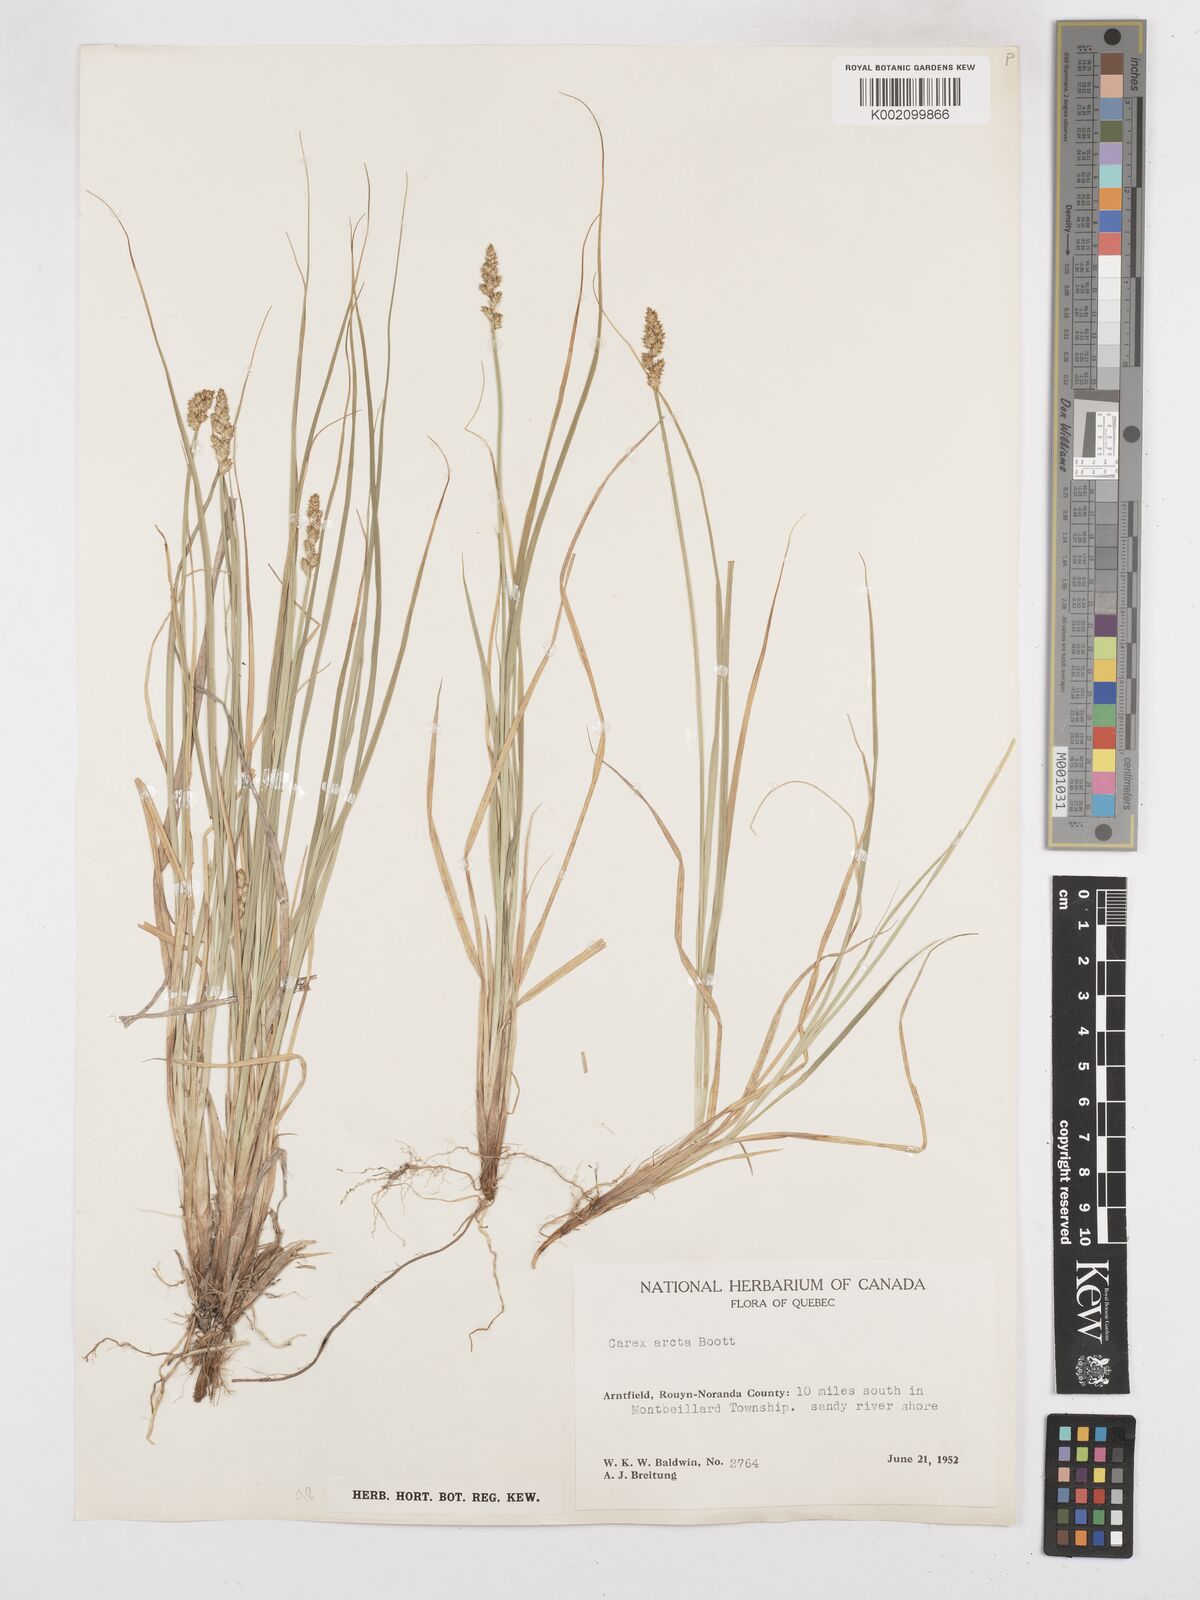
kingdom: Plantae
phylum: Tracheophyta
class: Liliopsida
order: Poales
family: Cyperaceae
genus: Carex
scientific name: Carex arcta
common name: Bear sedge
